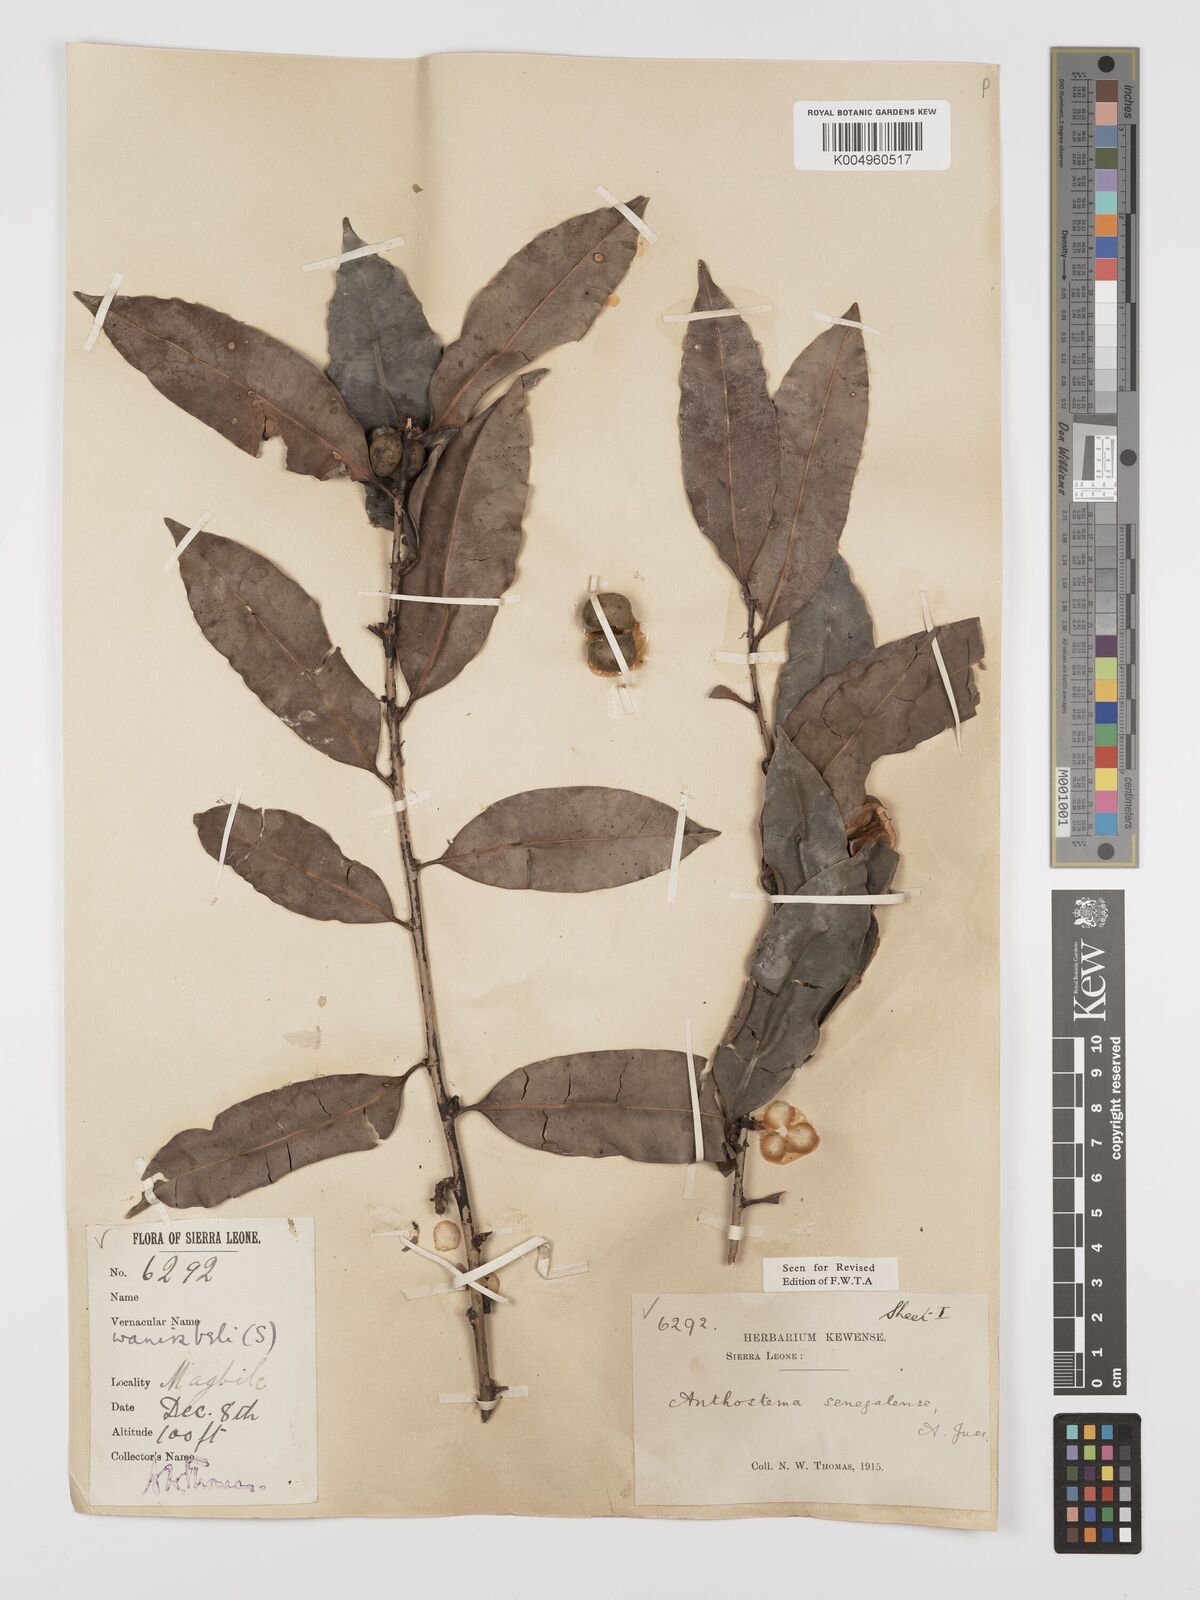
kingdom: Plantae
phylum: Tracheophyta
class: Magnoliopsida
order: Malpighiales
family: Euphorbiaceae
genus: Anthostema
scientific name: Anthostema senegalense
